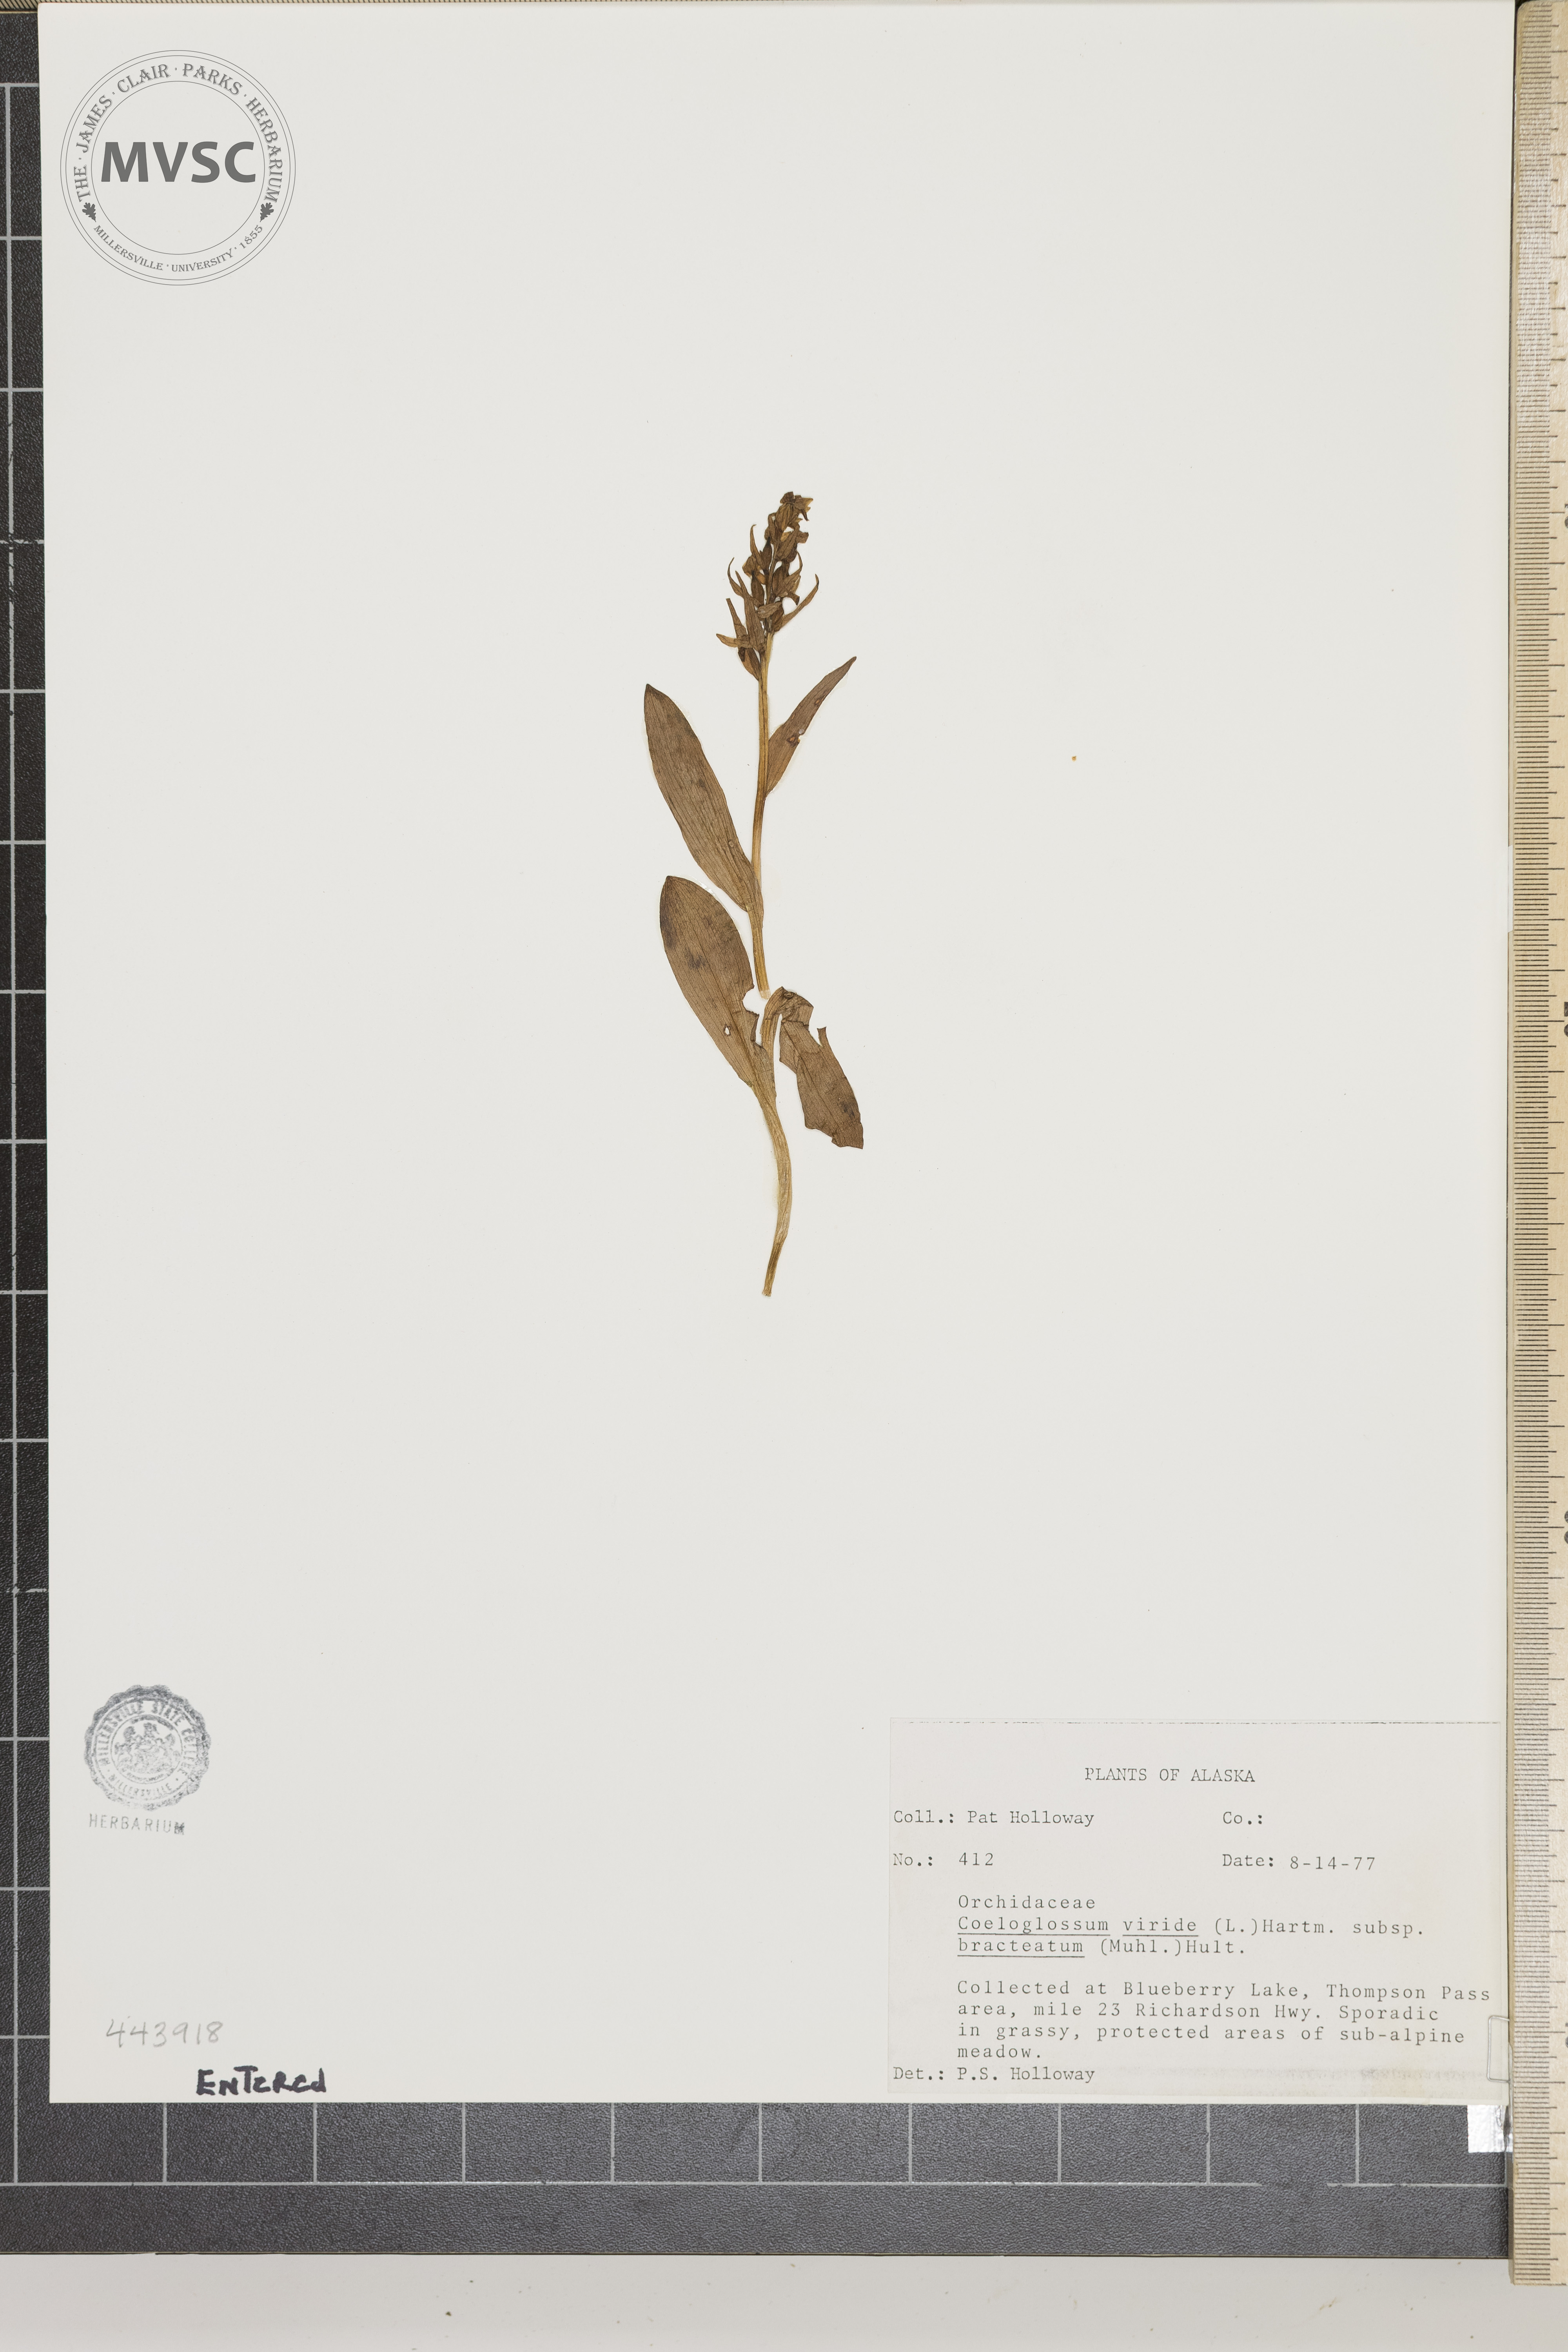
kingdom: Plantae
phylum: Tracheophyta
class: Liliopsida
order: Asparagales
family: Orchidaceae
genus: Dactylorhiza
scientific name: Dactylorhiza viridis
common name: Frog Orchid
